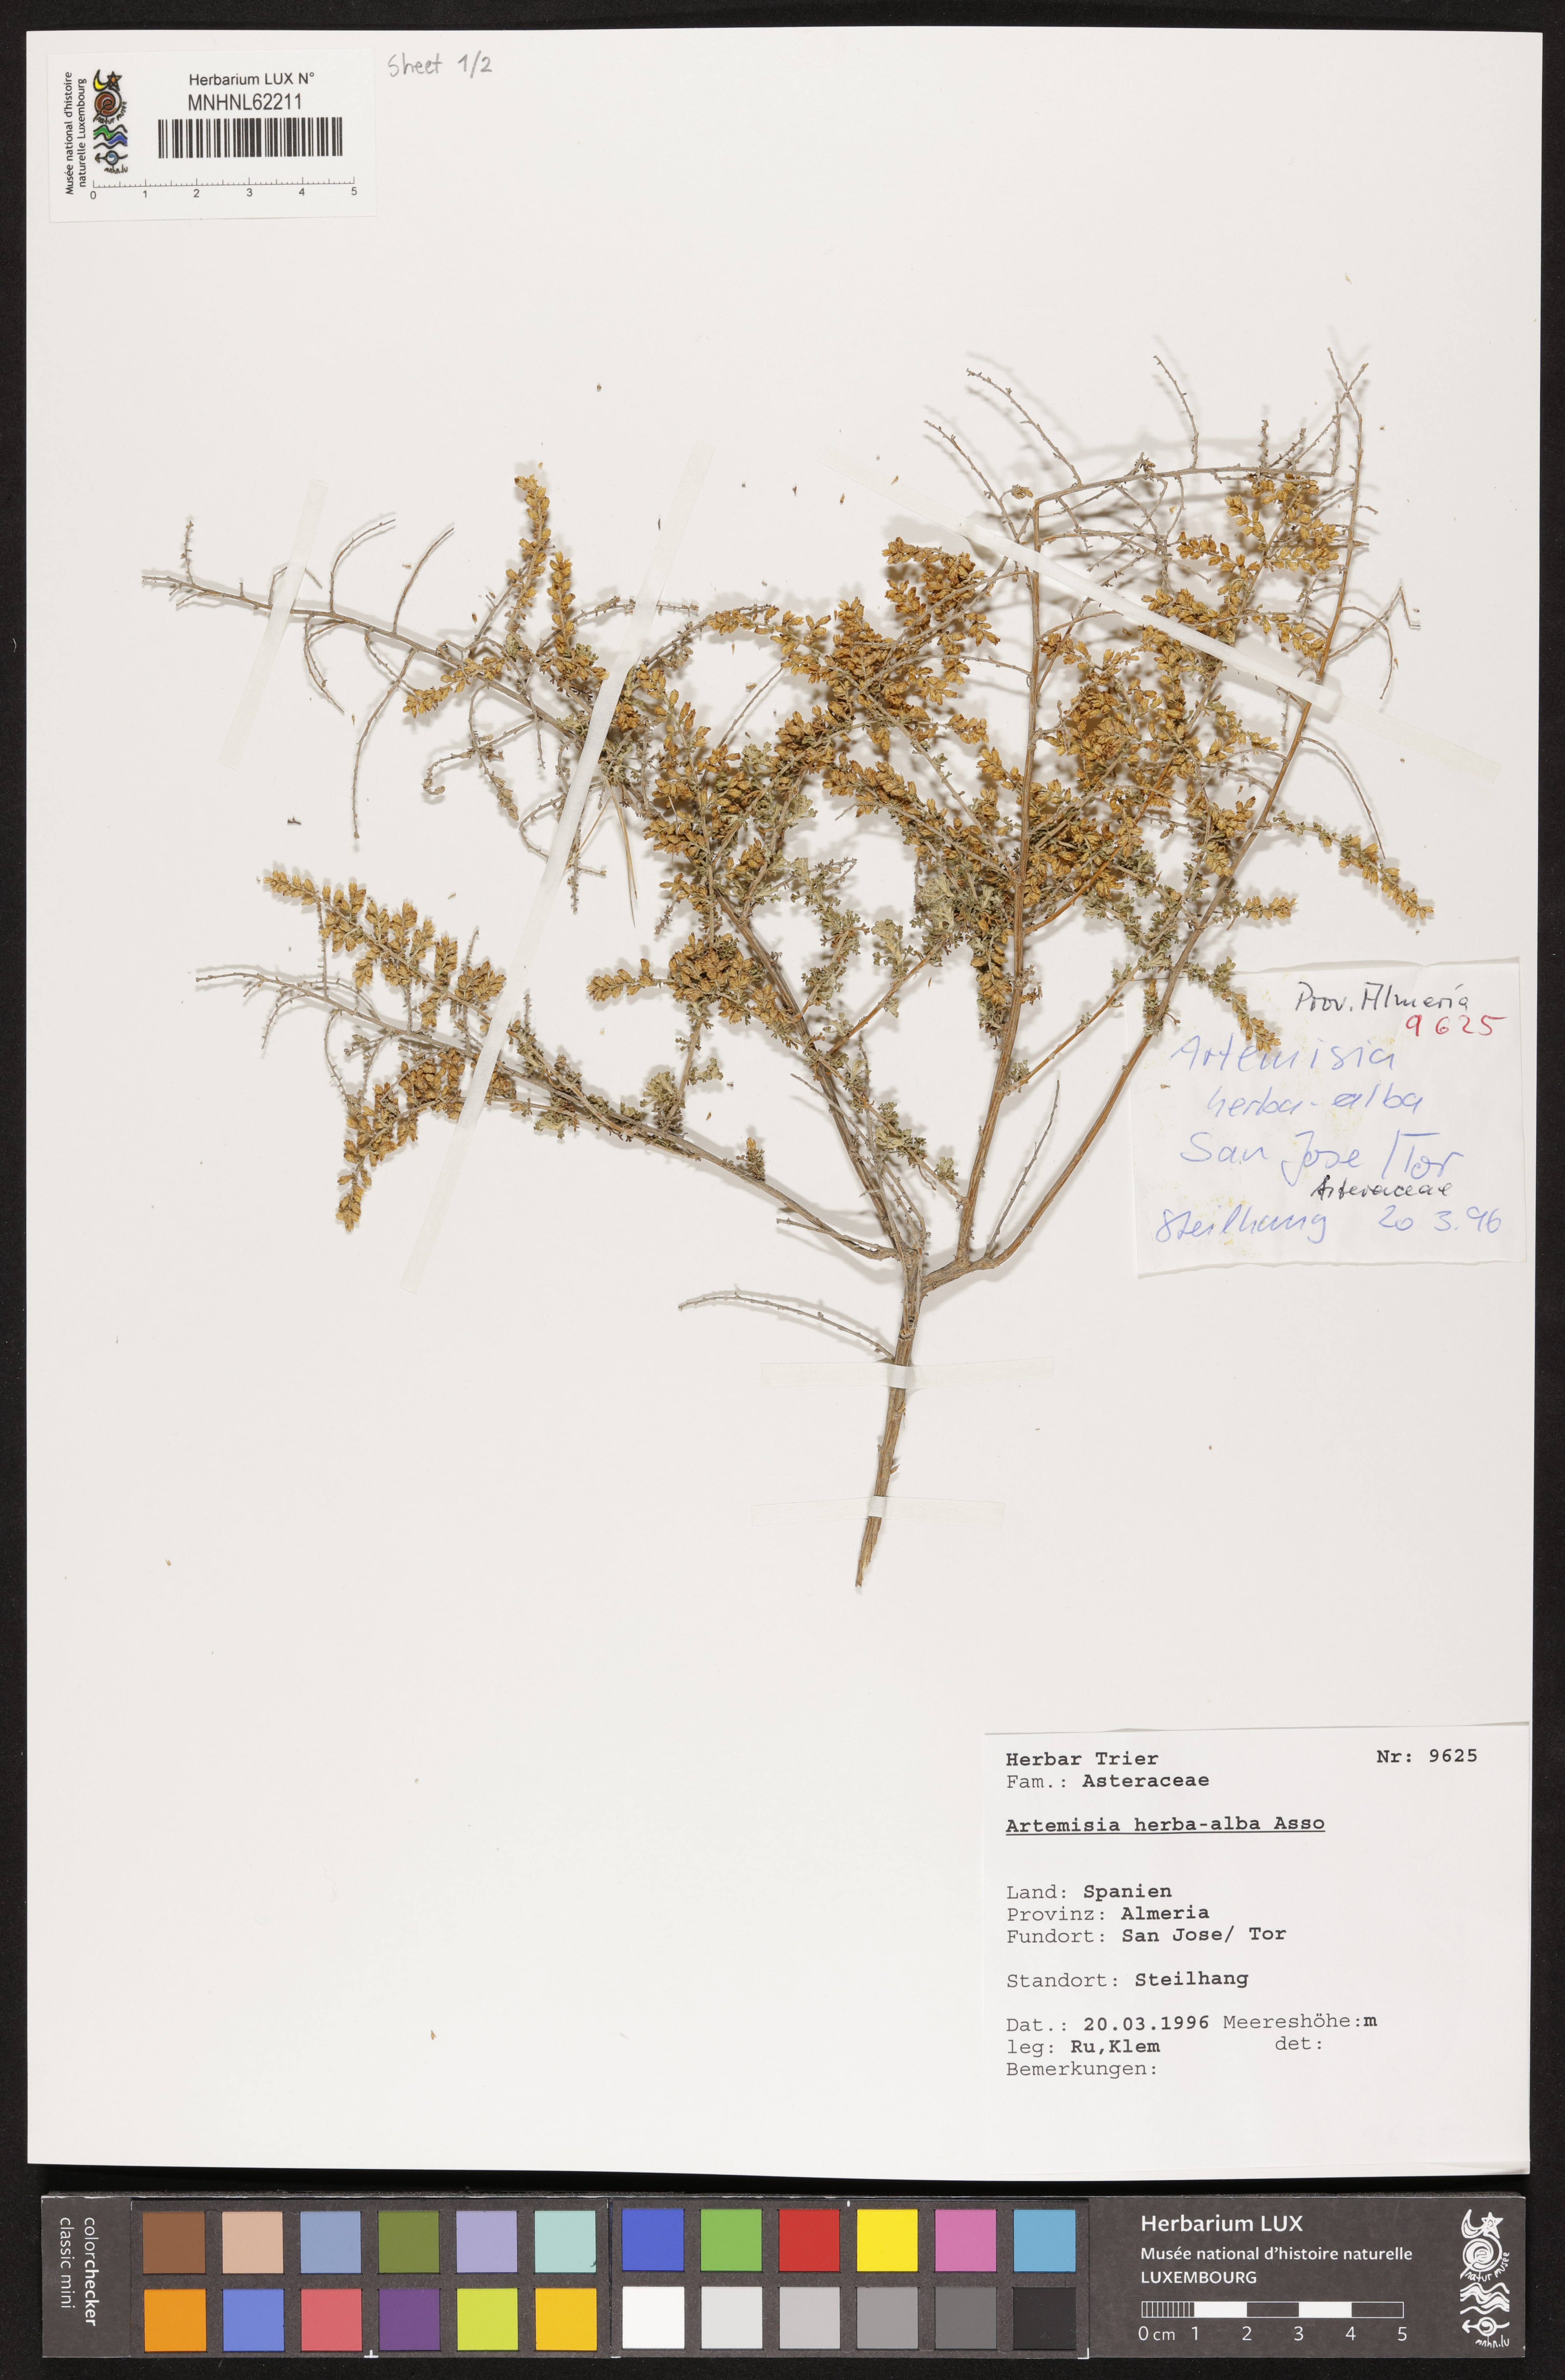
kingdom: Plantae
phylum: Tracheophyta
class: Magnoliopsida
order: Asterales
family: Asteraceae
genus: Artemisia
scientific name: Artemisia herba-alba
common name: White wormwood
